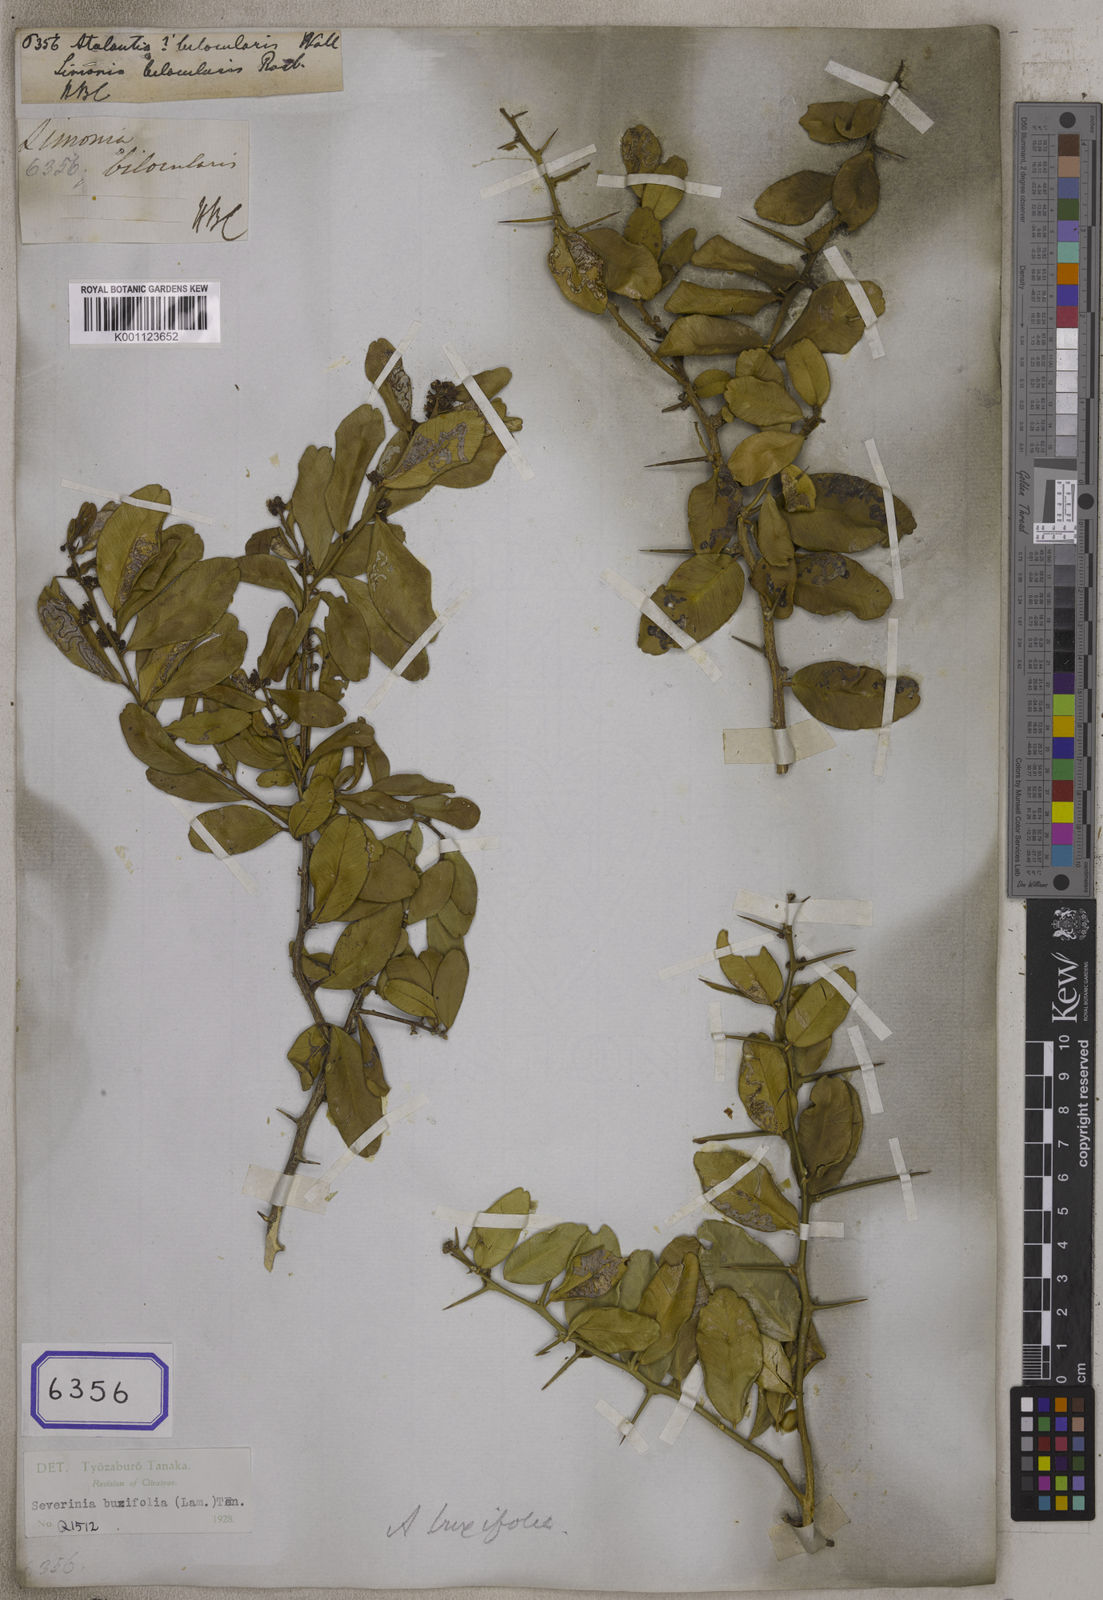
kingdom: Plantae
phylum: Tracheophyta
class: Magnoliopsida
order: Sapindales
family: Rutaceae
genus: Atalantia
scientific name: Atalantia buxifolia
